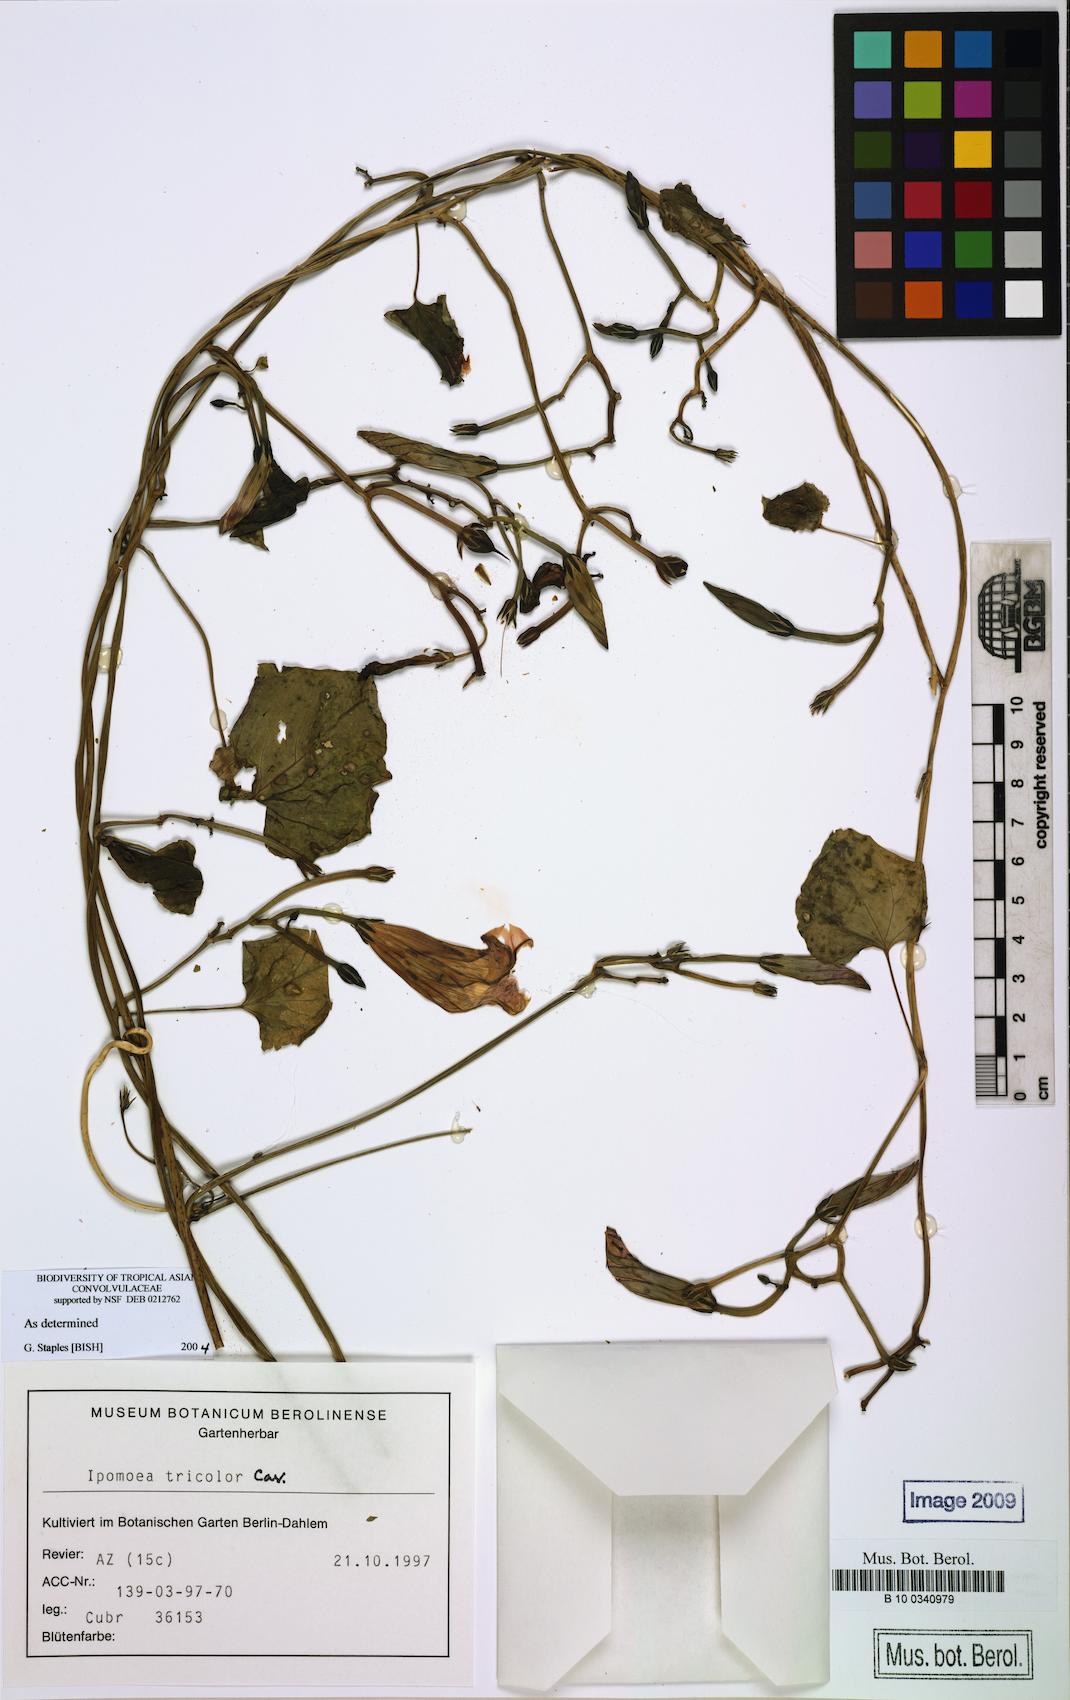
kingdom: Plantae
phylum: Tracheophyta
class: Magnoliopsida
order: Solanales
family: Convolvulaceae
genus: Ipomoea
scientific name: Ipomoea tricolor
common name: Morning-glory
